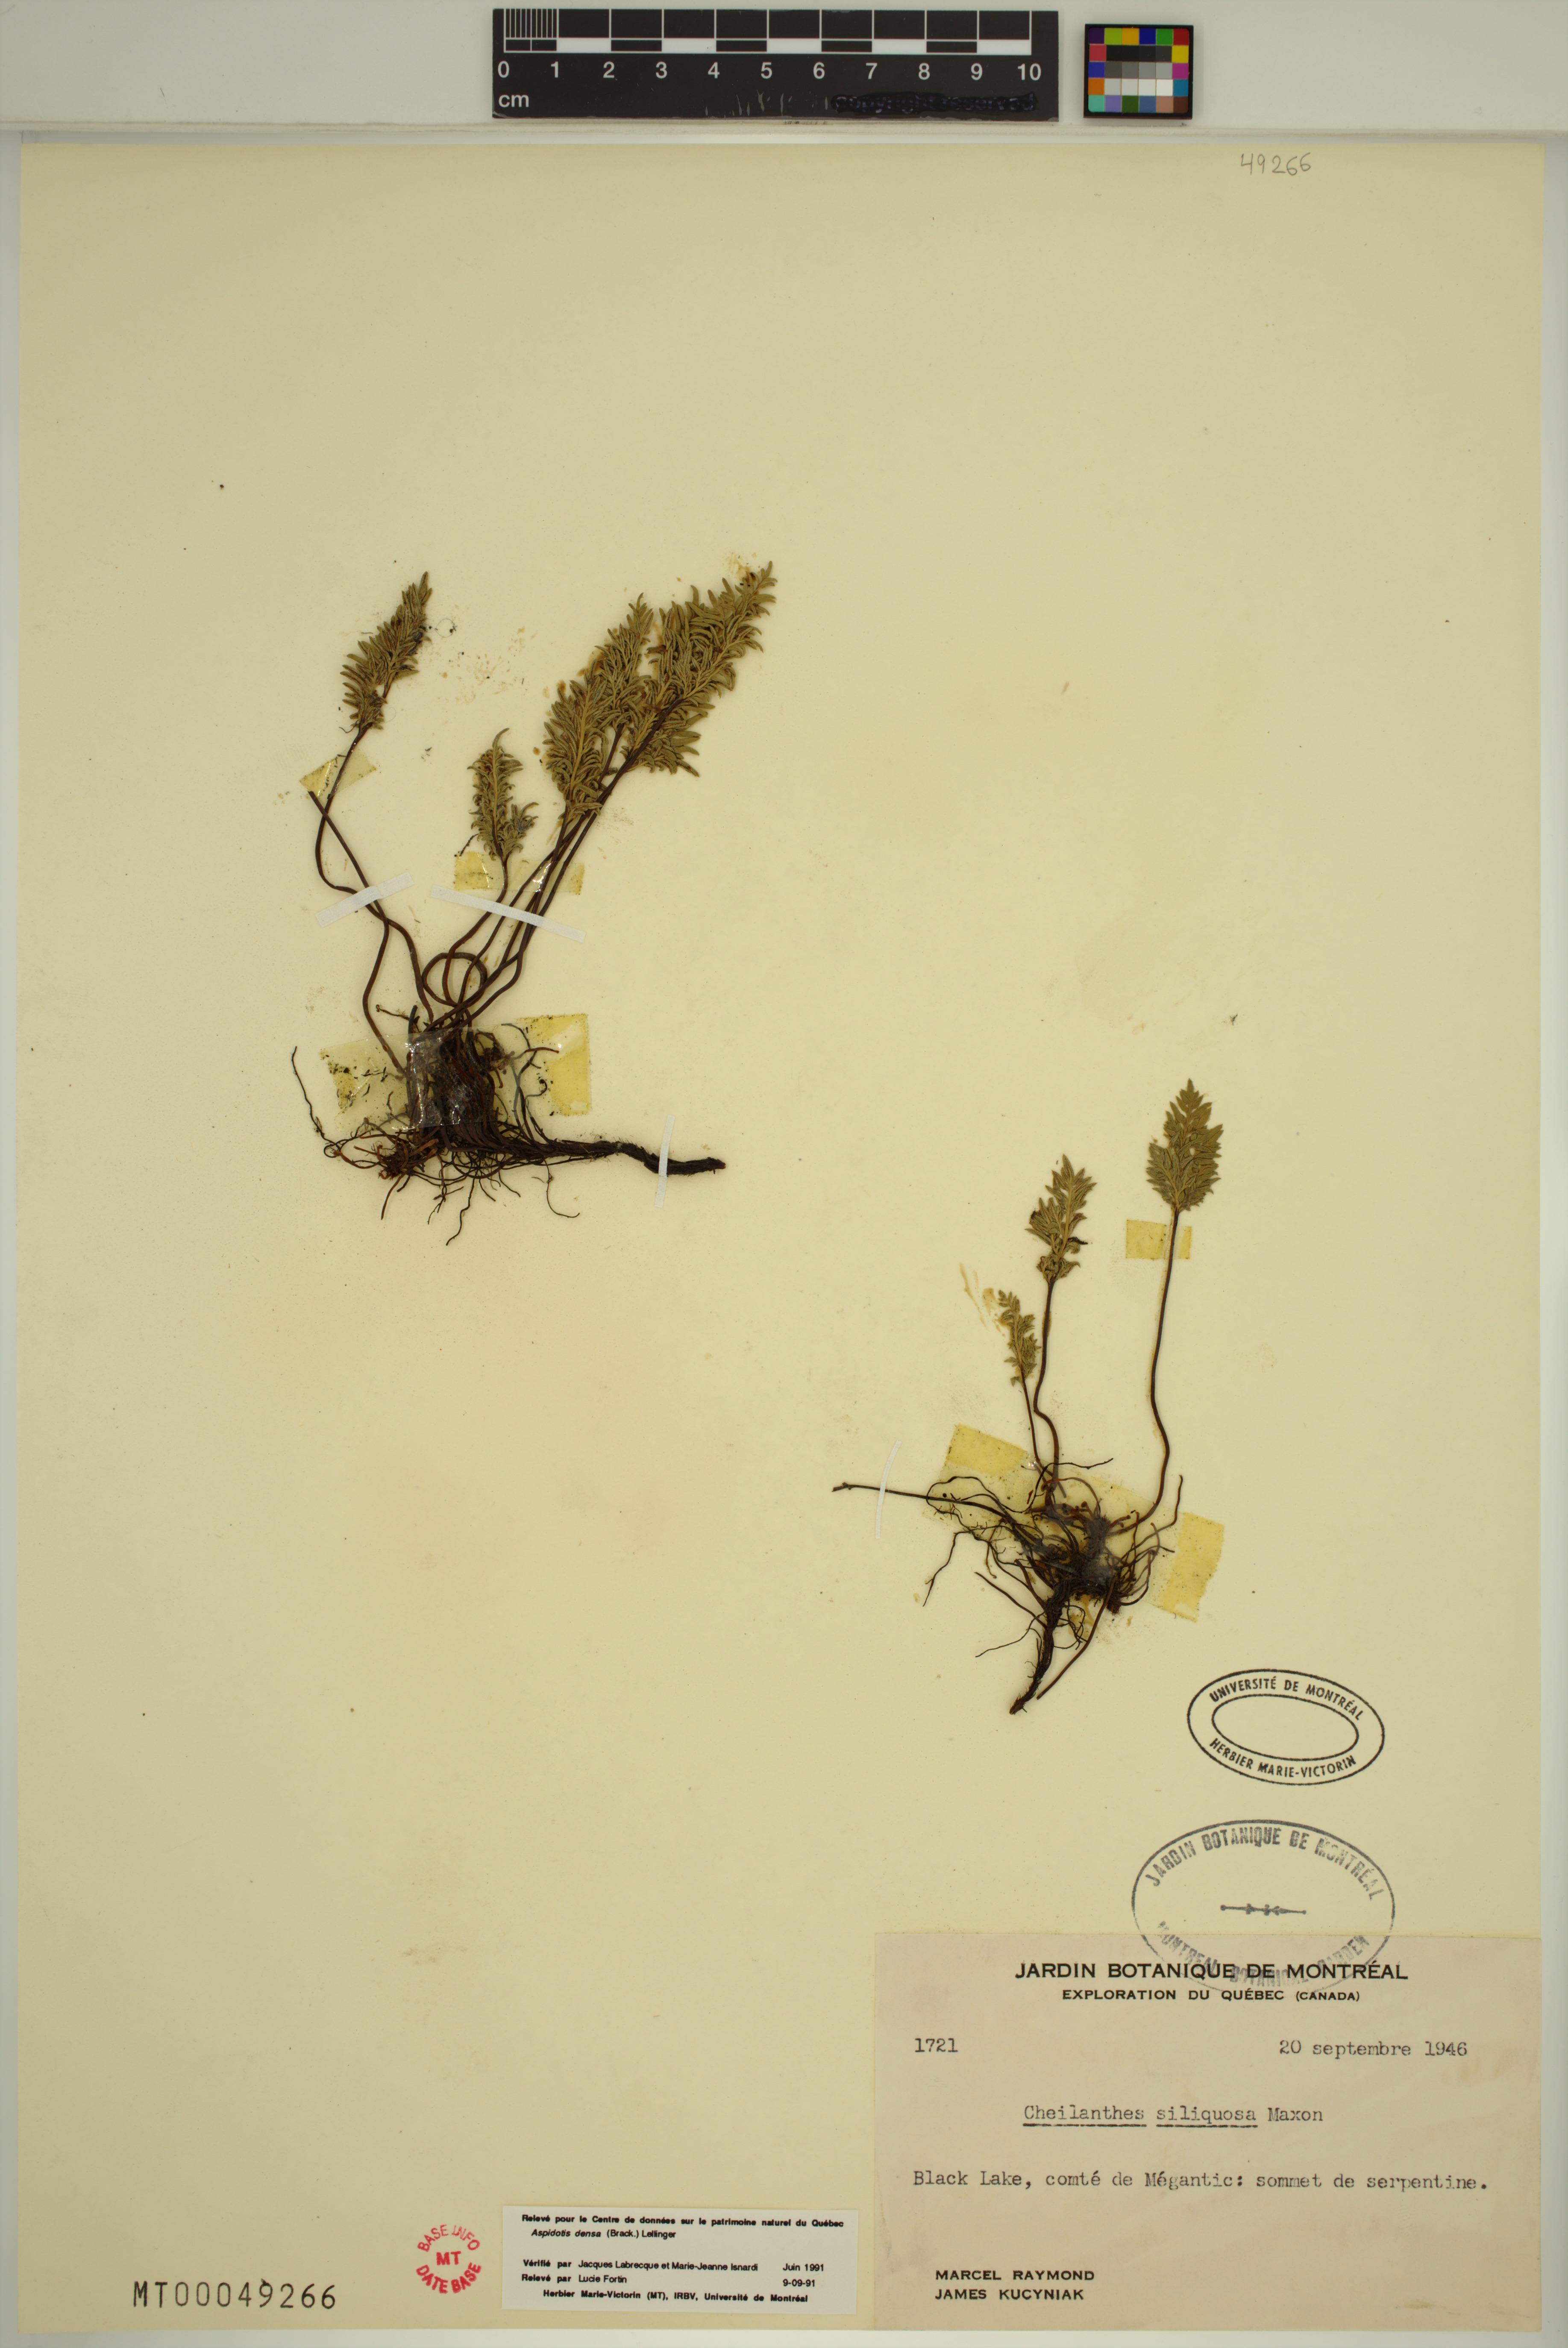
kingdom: Plantae
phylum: Tracheophyta
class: Polypodiopsida
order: Polypodiales
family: Pteridaceae
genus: Aspidotis
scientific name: Aspidotis densa
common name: Indian's dream
